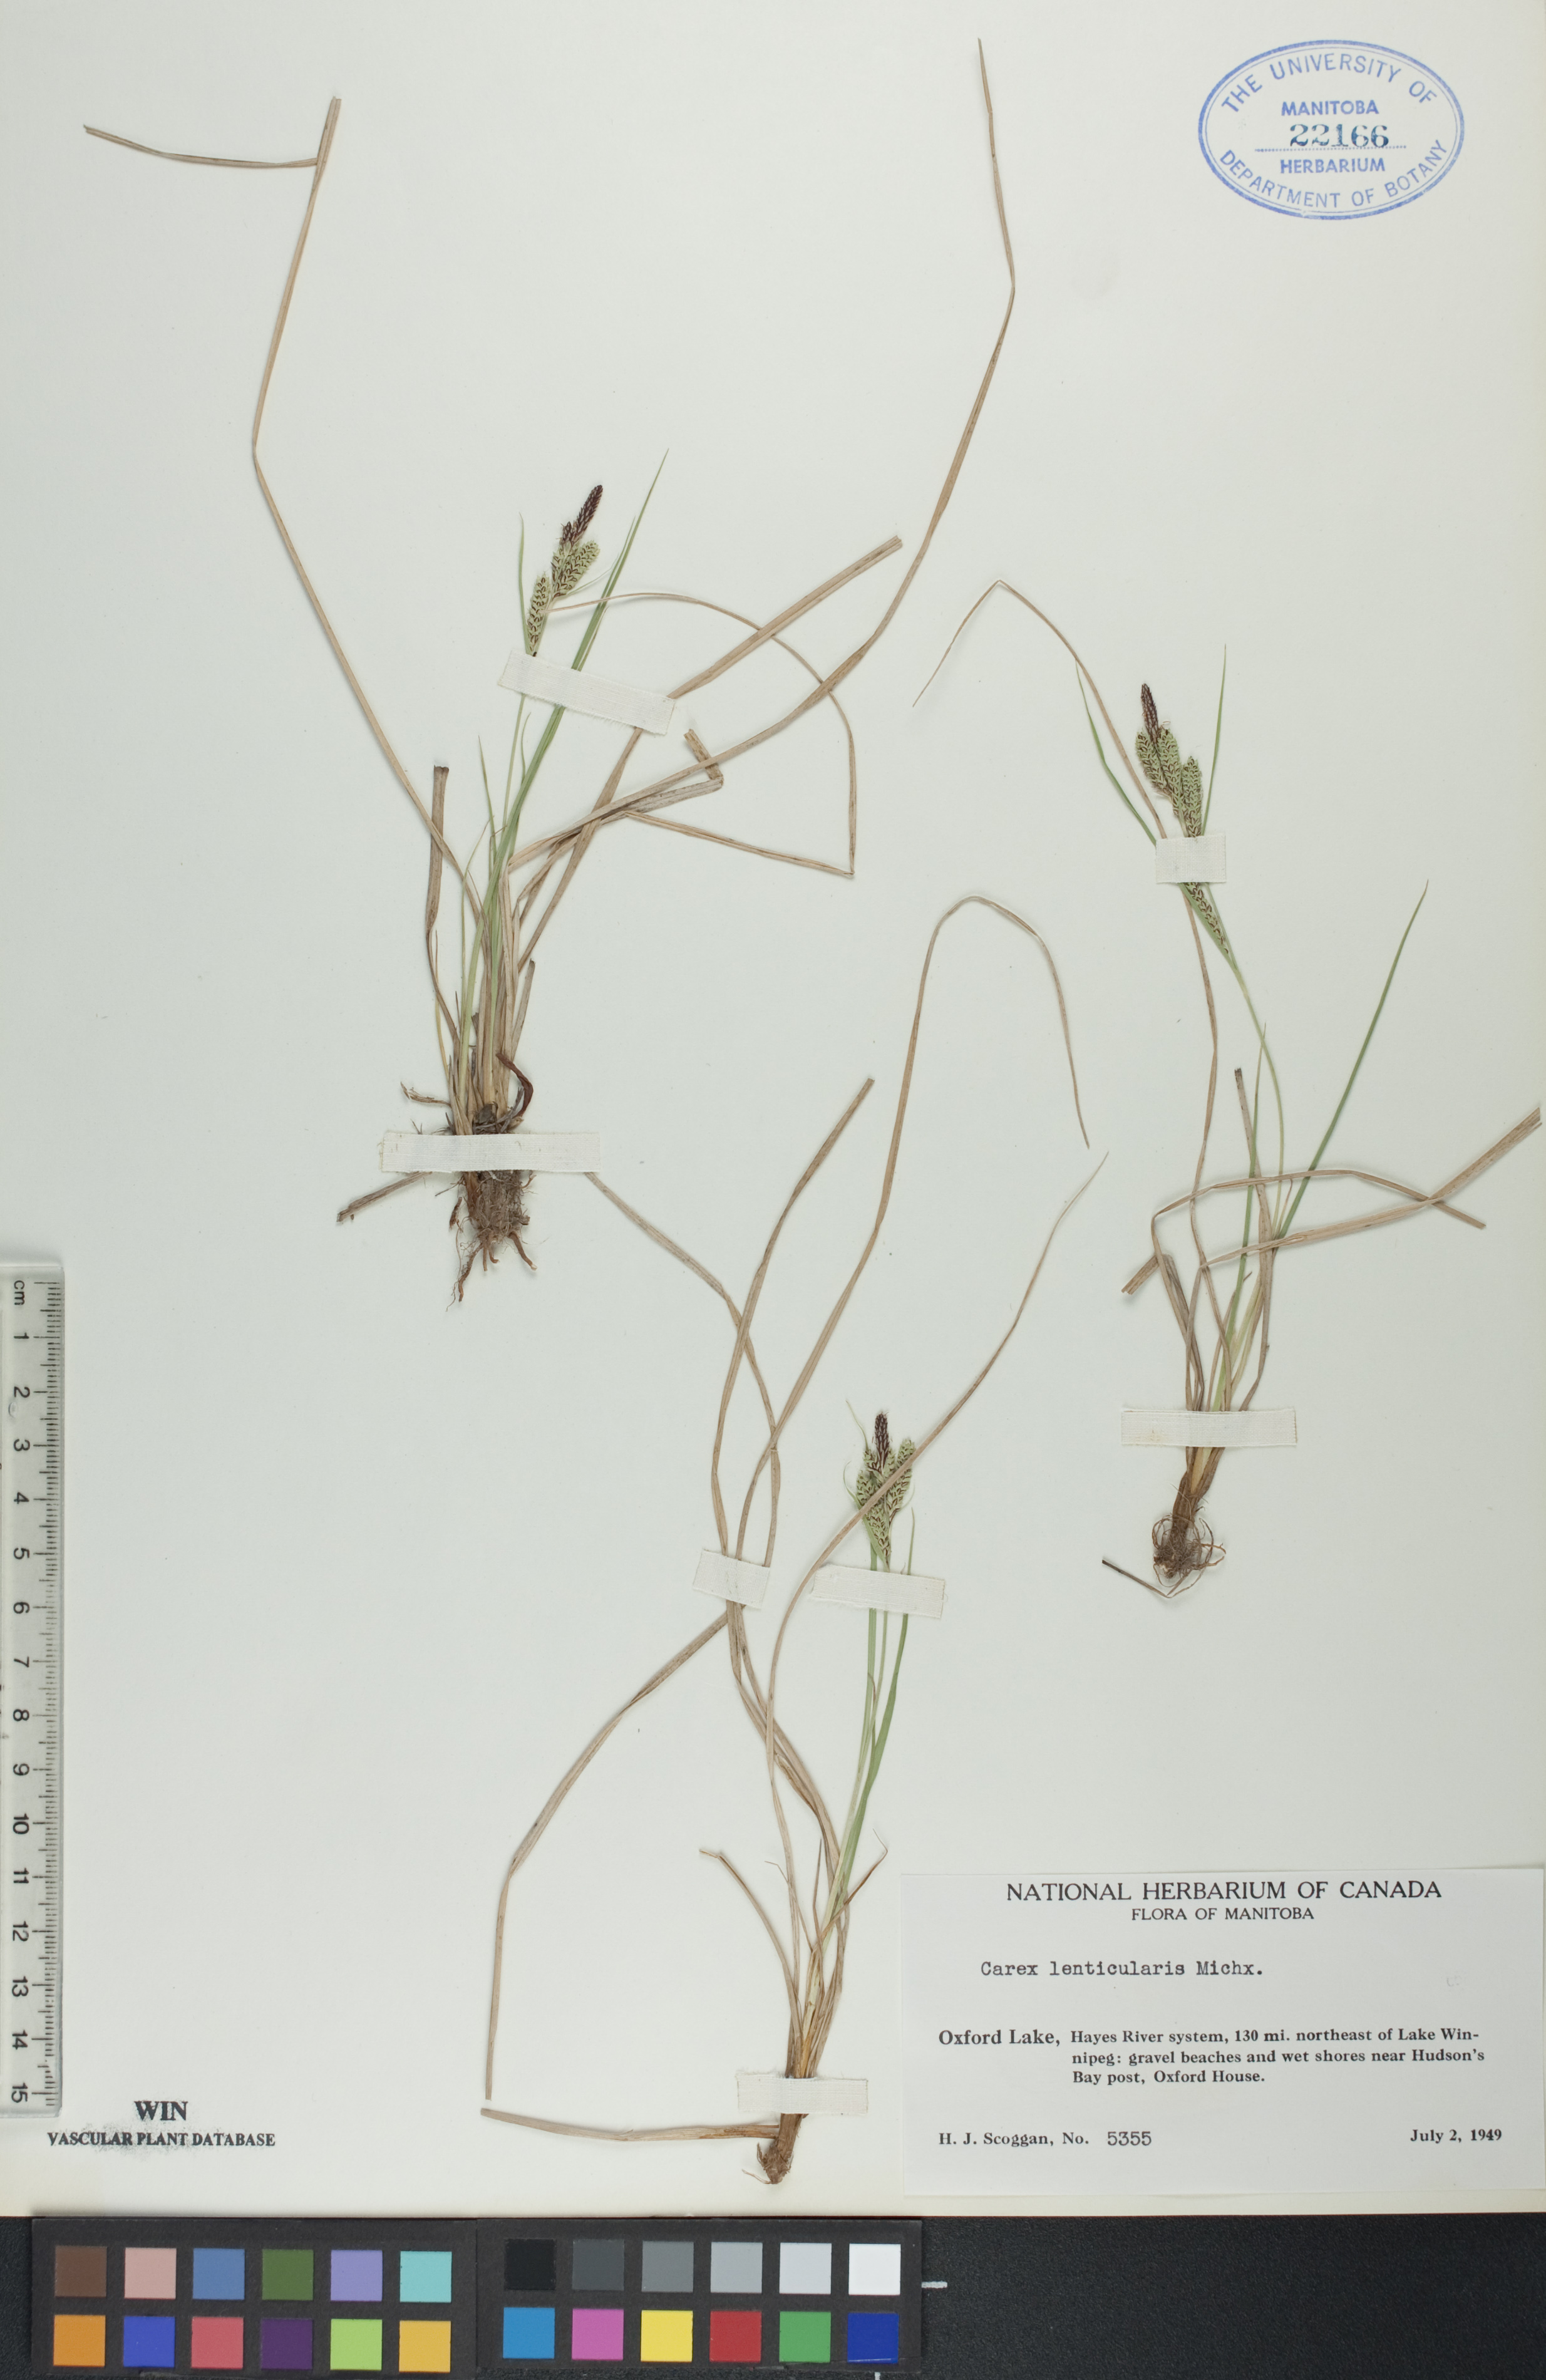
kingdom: Plantae
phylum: Tracheophyta
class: Liliopsida
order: Poales
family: Cyperaceae
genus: Carex
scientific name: Carex lenticularis
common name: Lakeshore sedge
